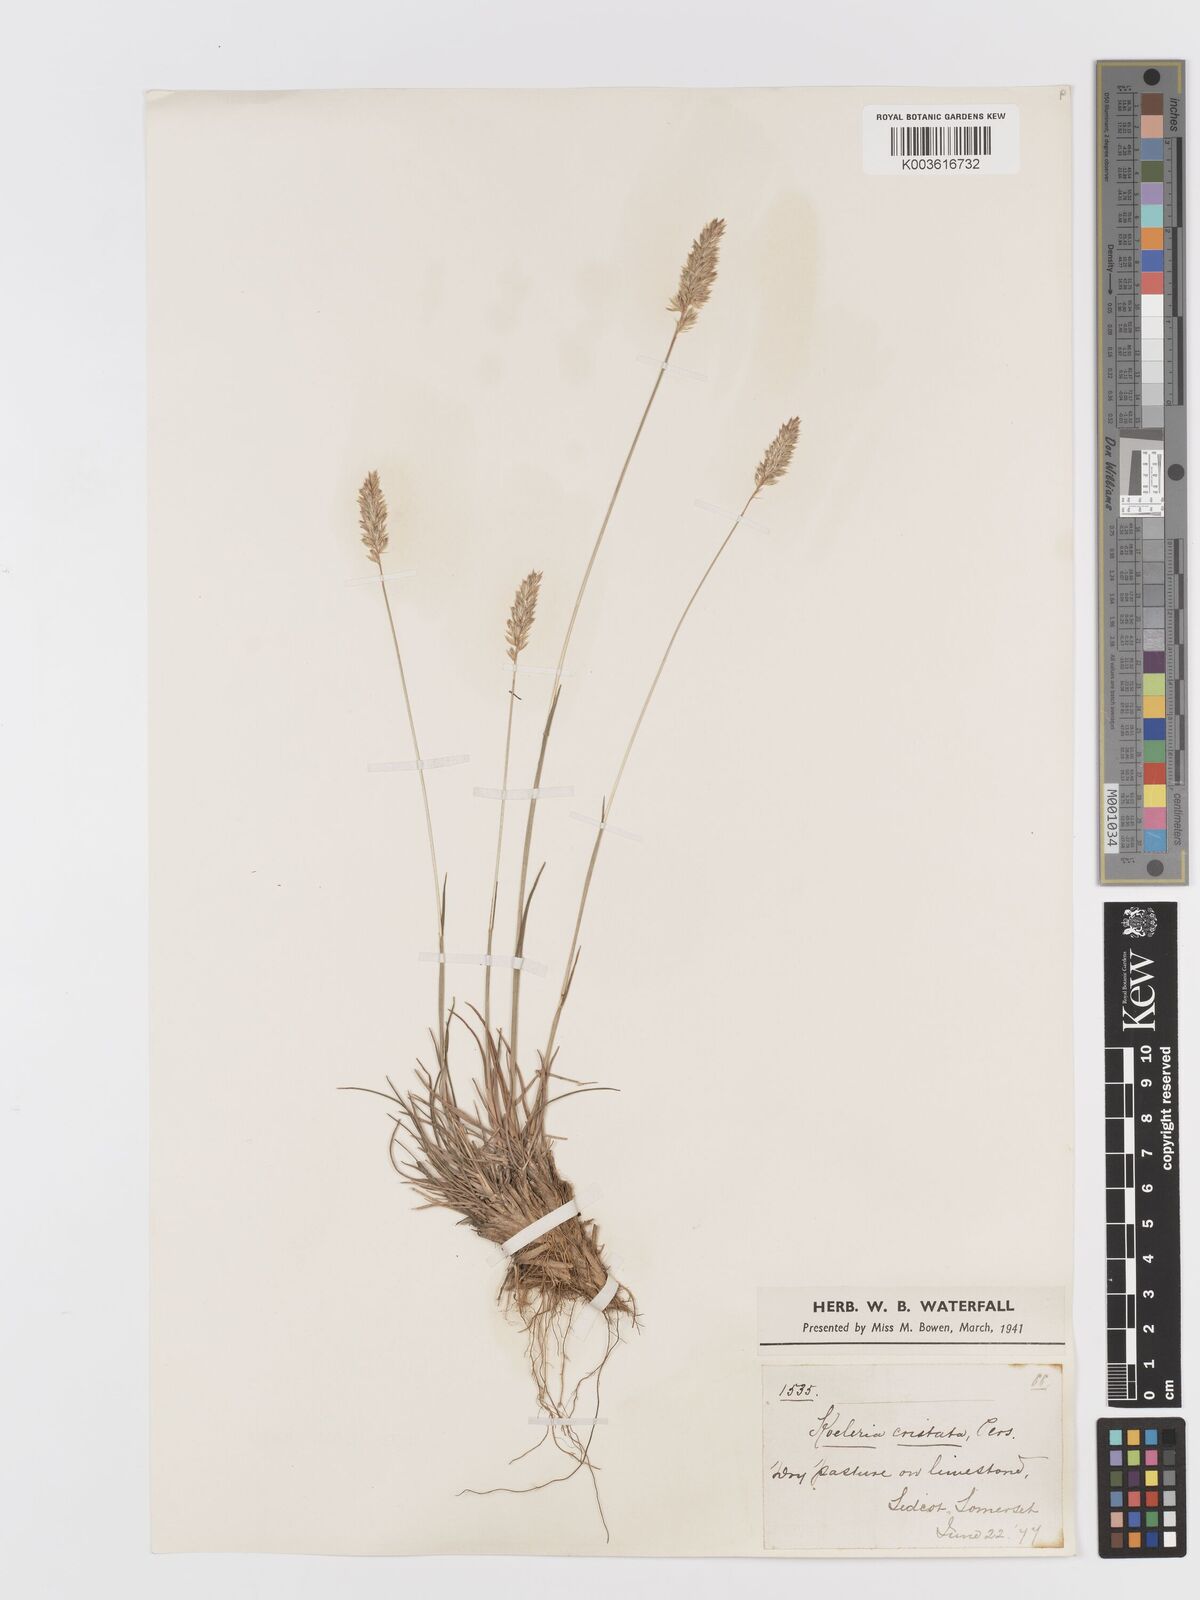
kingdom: Plantae
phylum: Tracheophyta
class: Liliopsida
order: Poales
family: Poaceae
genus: Koeleria
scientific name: Koeleria
